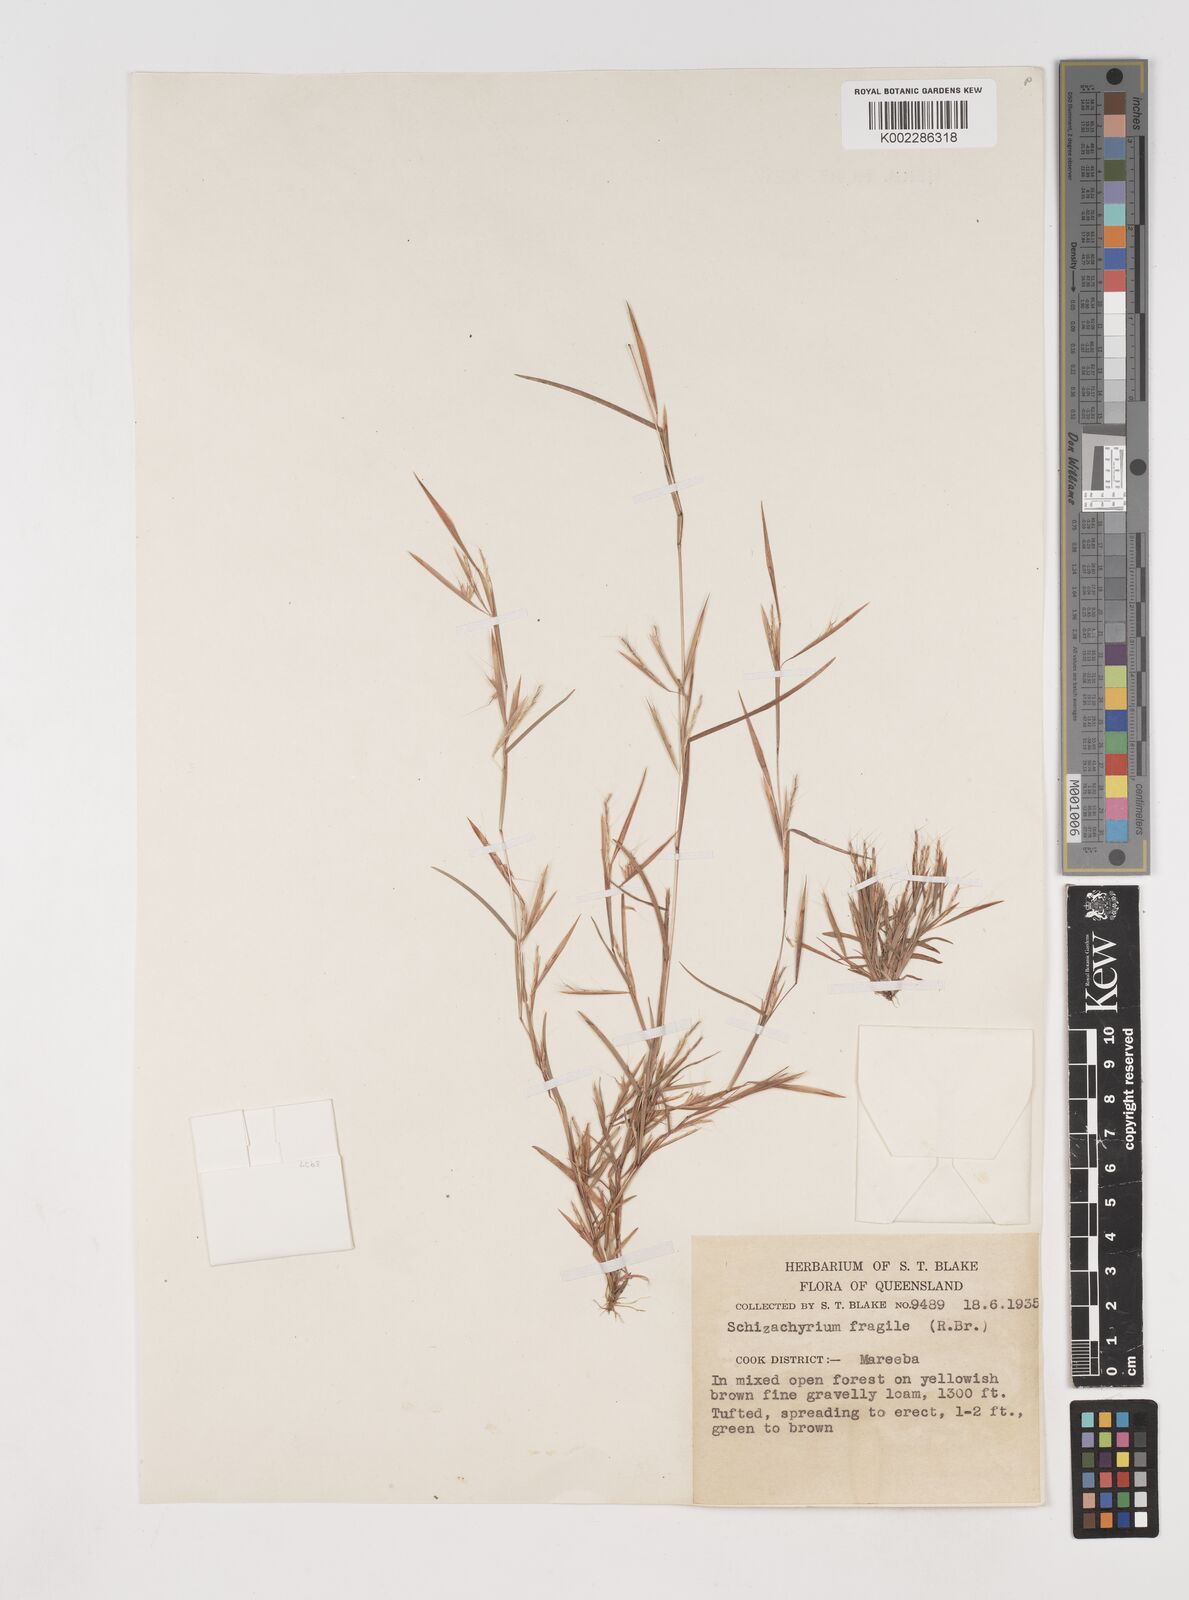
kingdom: Plantae
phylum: Tracheophyta
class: Liliopsida
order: Poales
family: Poaceae
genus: Schizachyrium
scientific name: Schizachyrium
